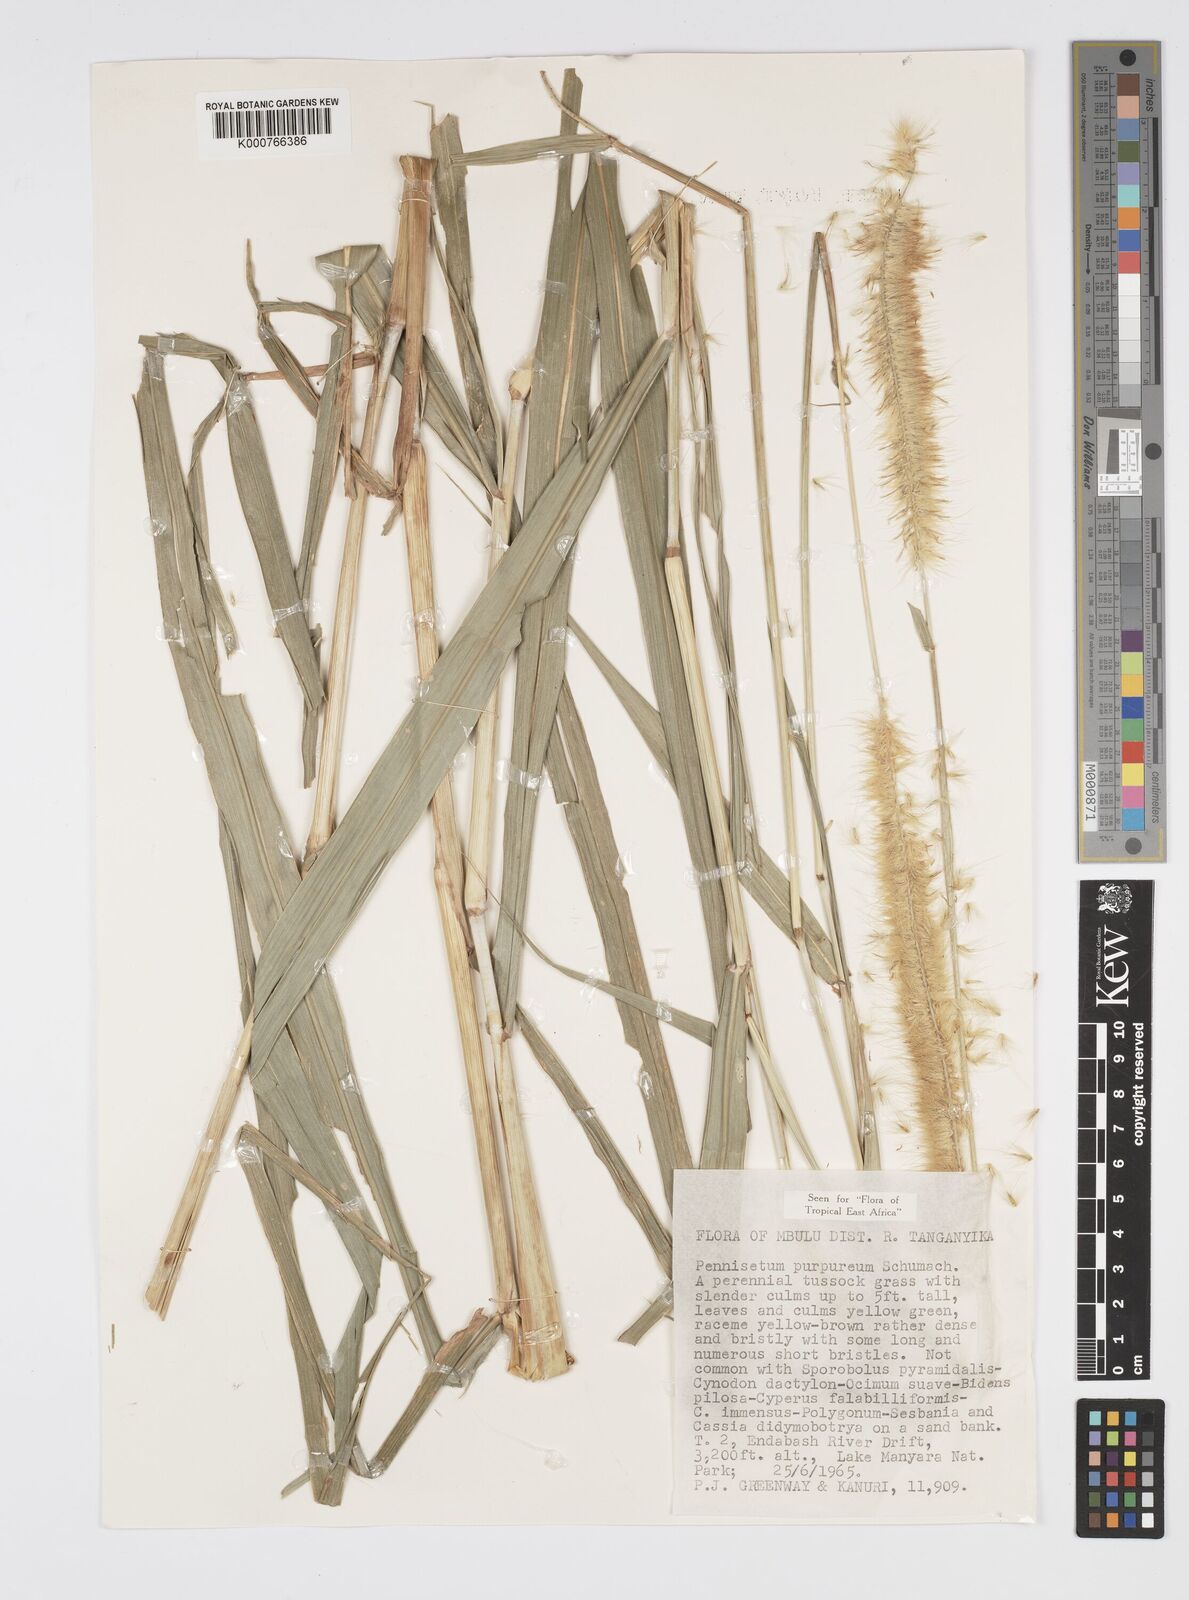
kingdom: Plantae
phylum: Tracheophyta
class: Liliopsida
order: Poales
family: Poaceae
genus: Cenchrus
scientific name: Cenchrus purpureus
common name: Elephant grass
